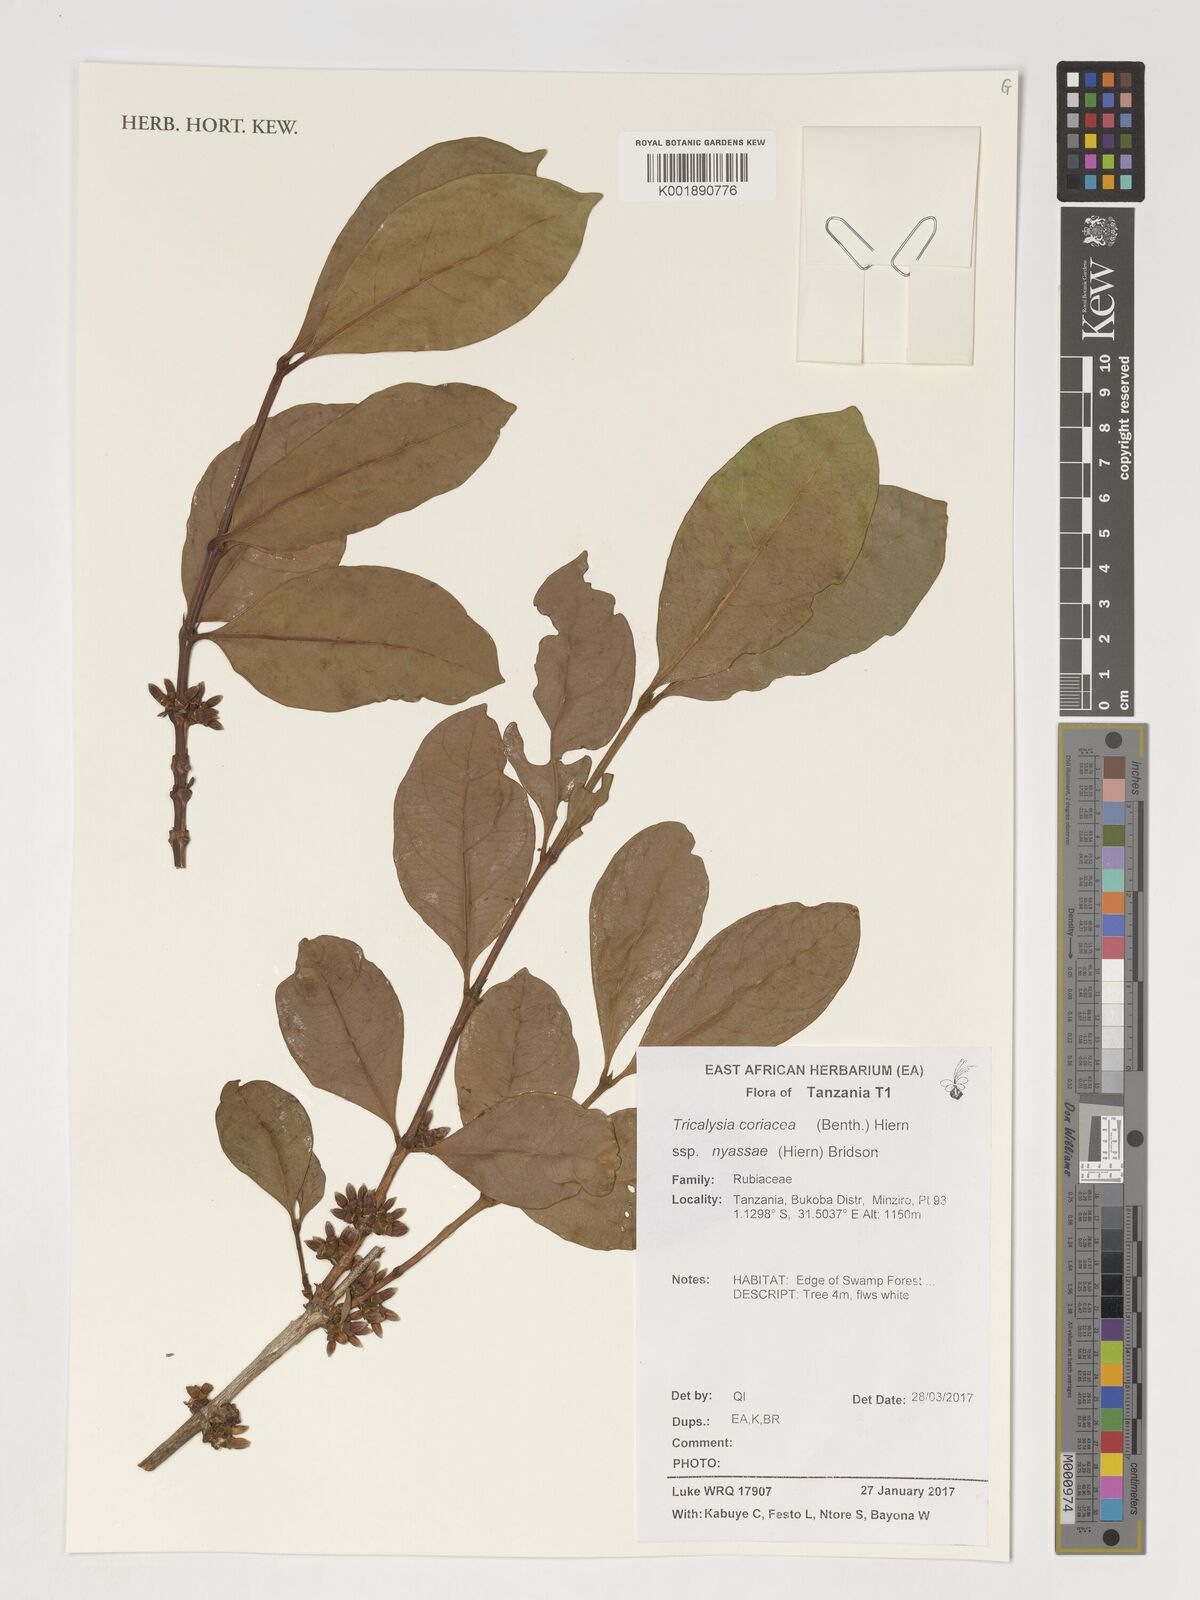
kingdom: Plantae
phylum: Tracheophyta
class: Magnoliopsida
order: Gentianales
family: Rubiaceae
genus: Tricalysia
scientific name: Tricalysia coriacea
